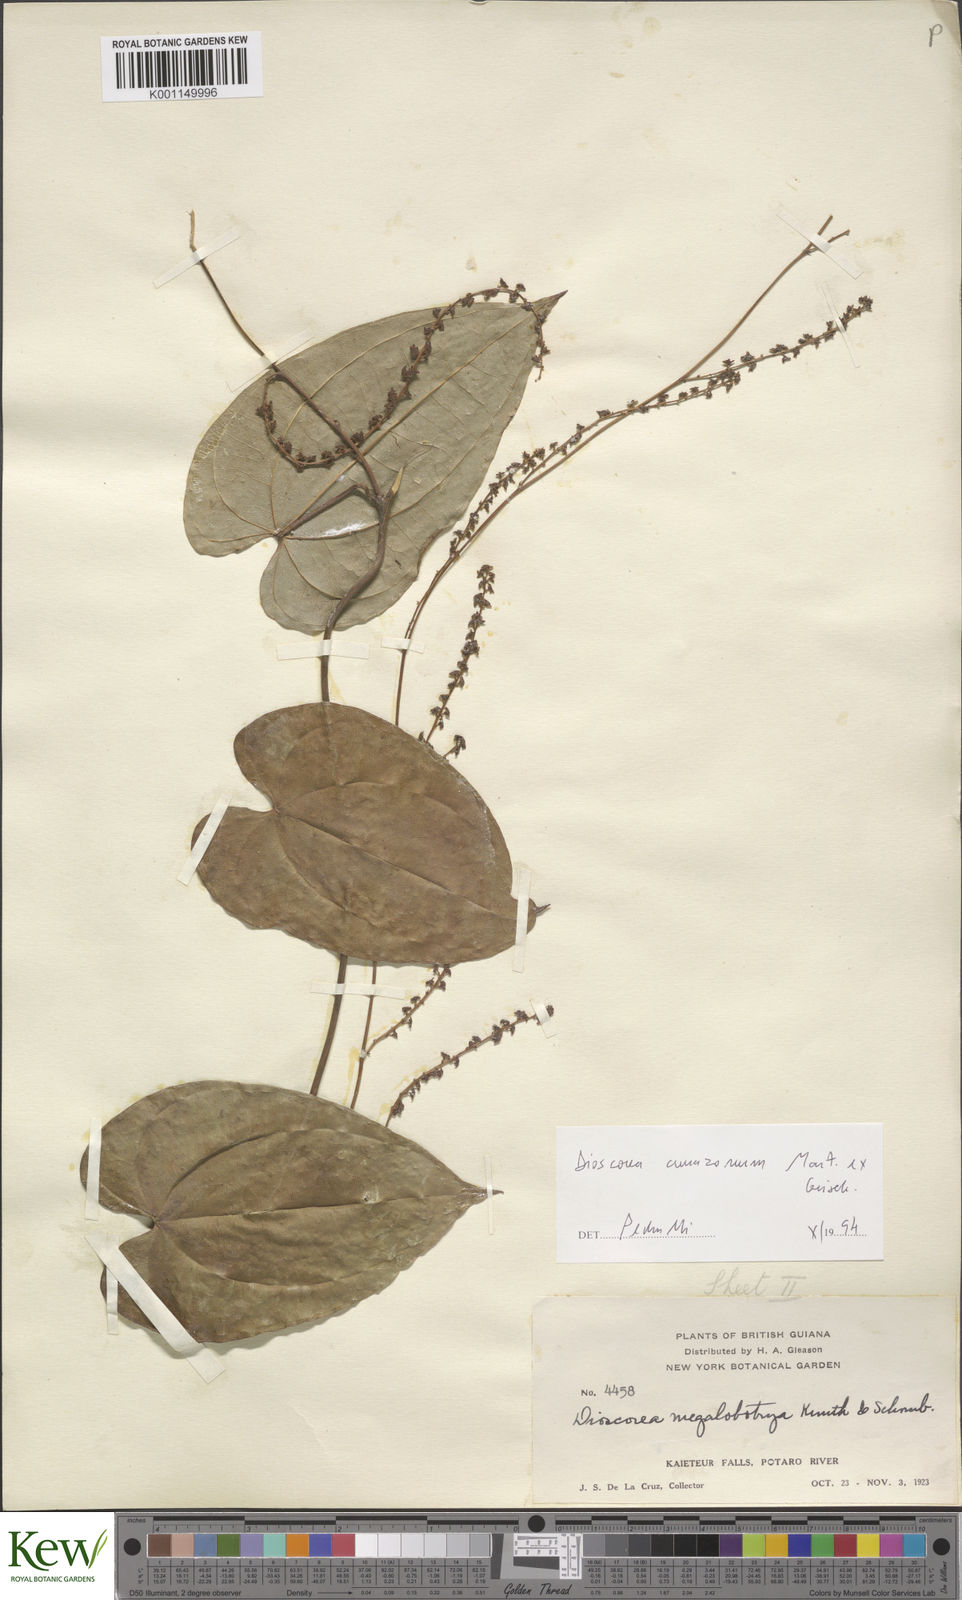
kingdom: Plantae
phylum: Tracheophyta
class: Liliopsida
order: Dioscoreales
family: Dioscoreaceae
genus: Dioscorea
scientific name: Dioscorea amazonum
